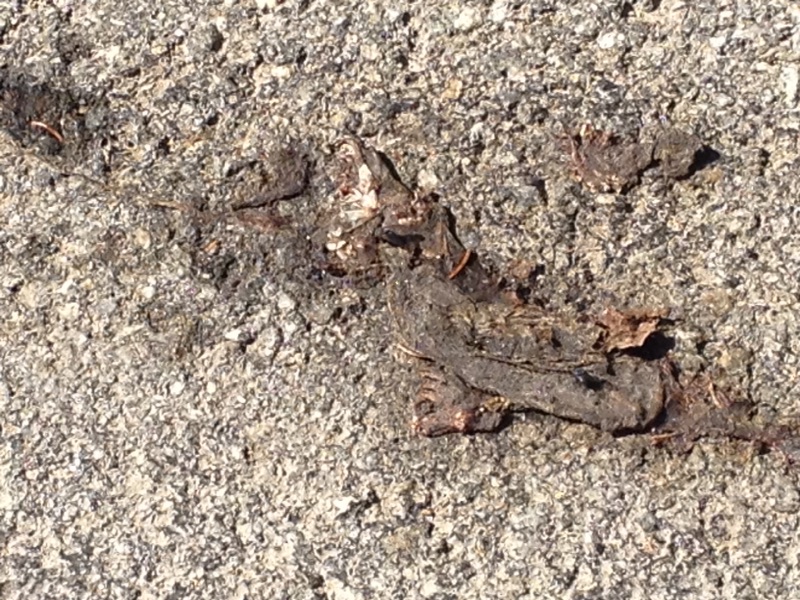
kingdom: Animalia
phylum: Chordata
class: Amphibia
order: Anura
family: Bufonidae
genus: Bufo
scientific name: Bufo bufo
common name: Common toad
